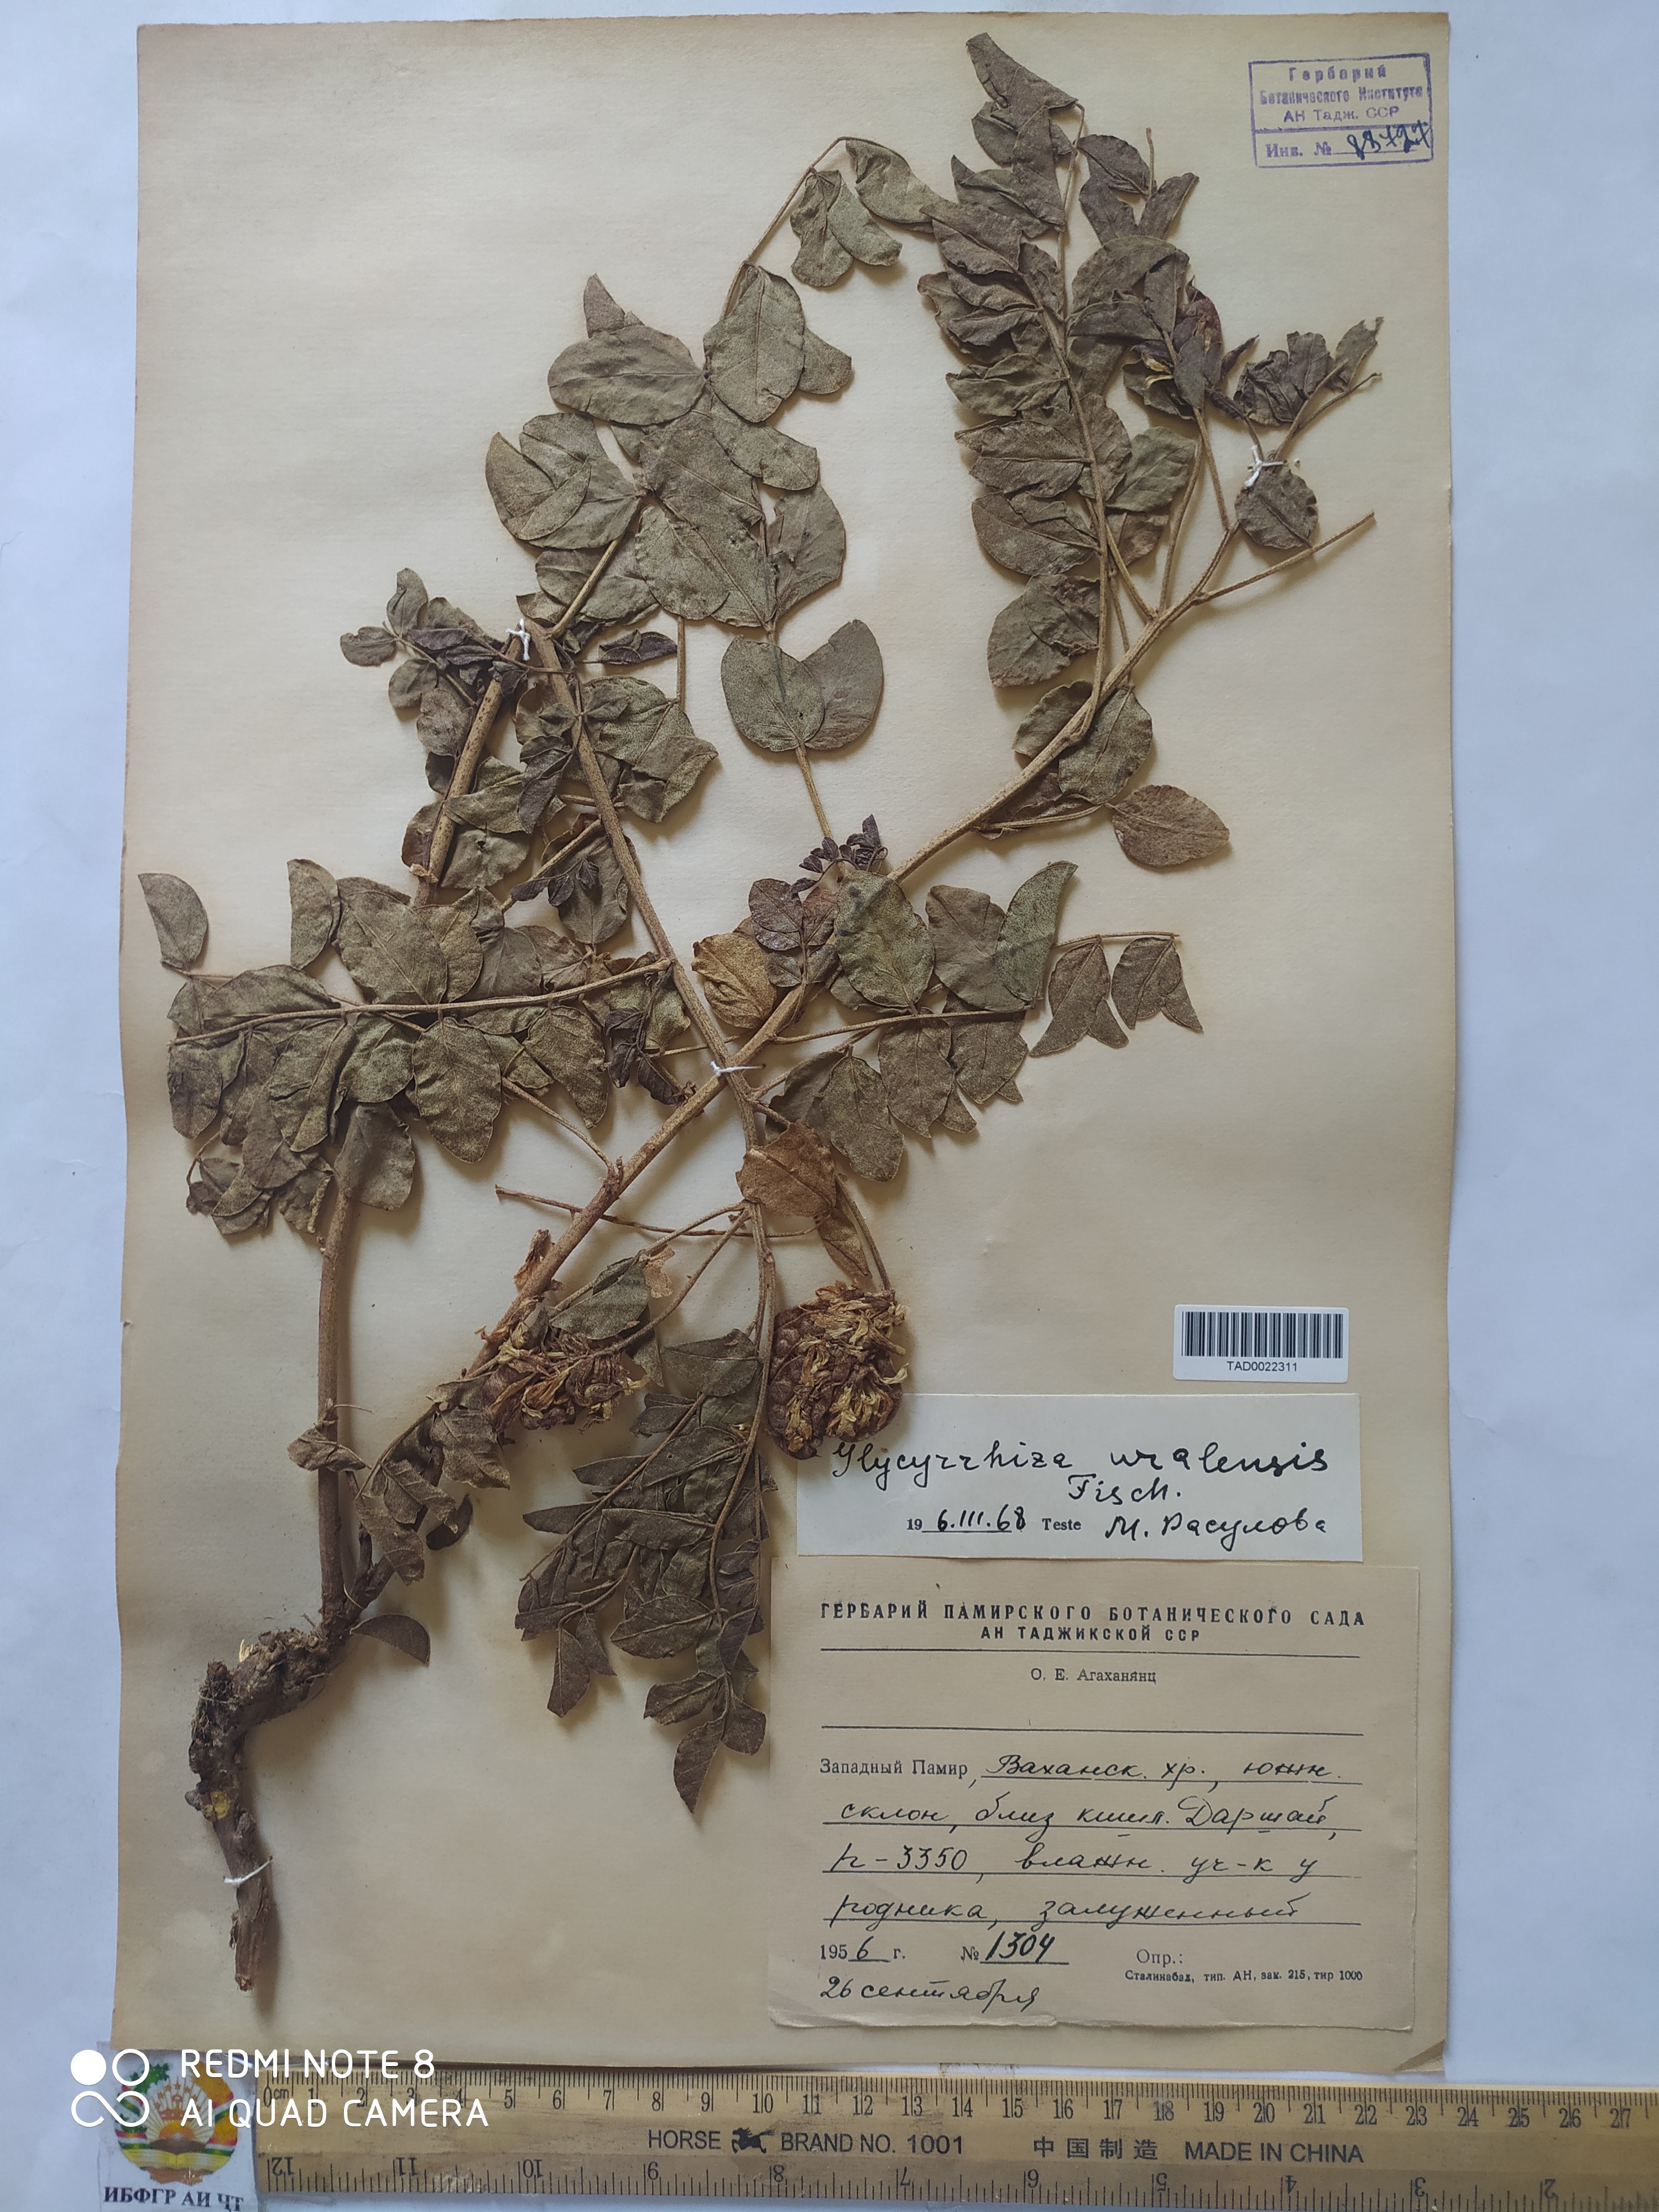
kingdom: Plantae
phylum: Tracheophyta
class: Magnoliopsida
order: Fabales
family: Fabaceae
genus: Glycyrrhiza
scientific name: Glycyrrhiza uralensis
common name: Chinese licorice
